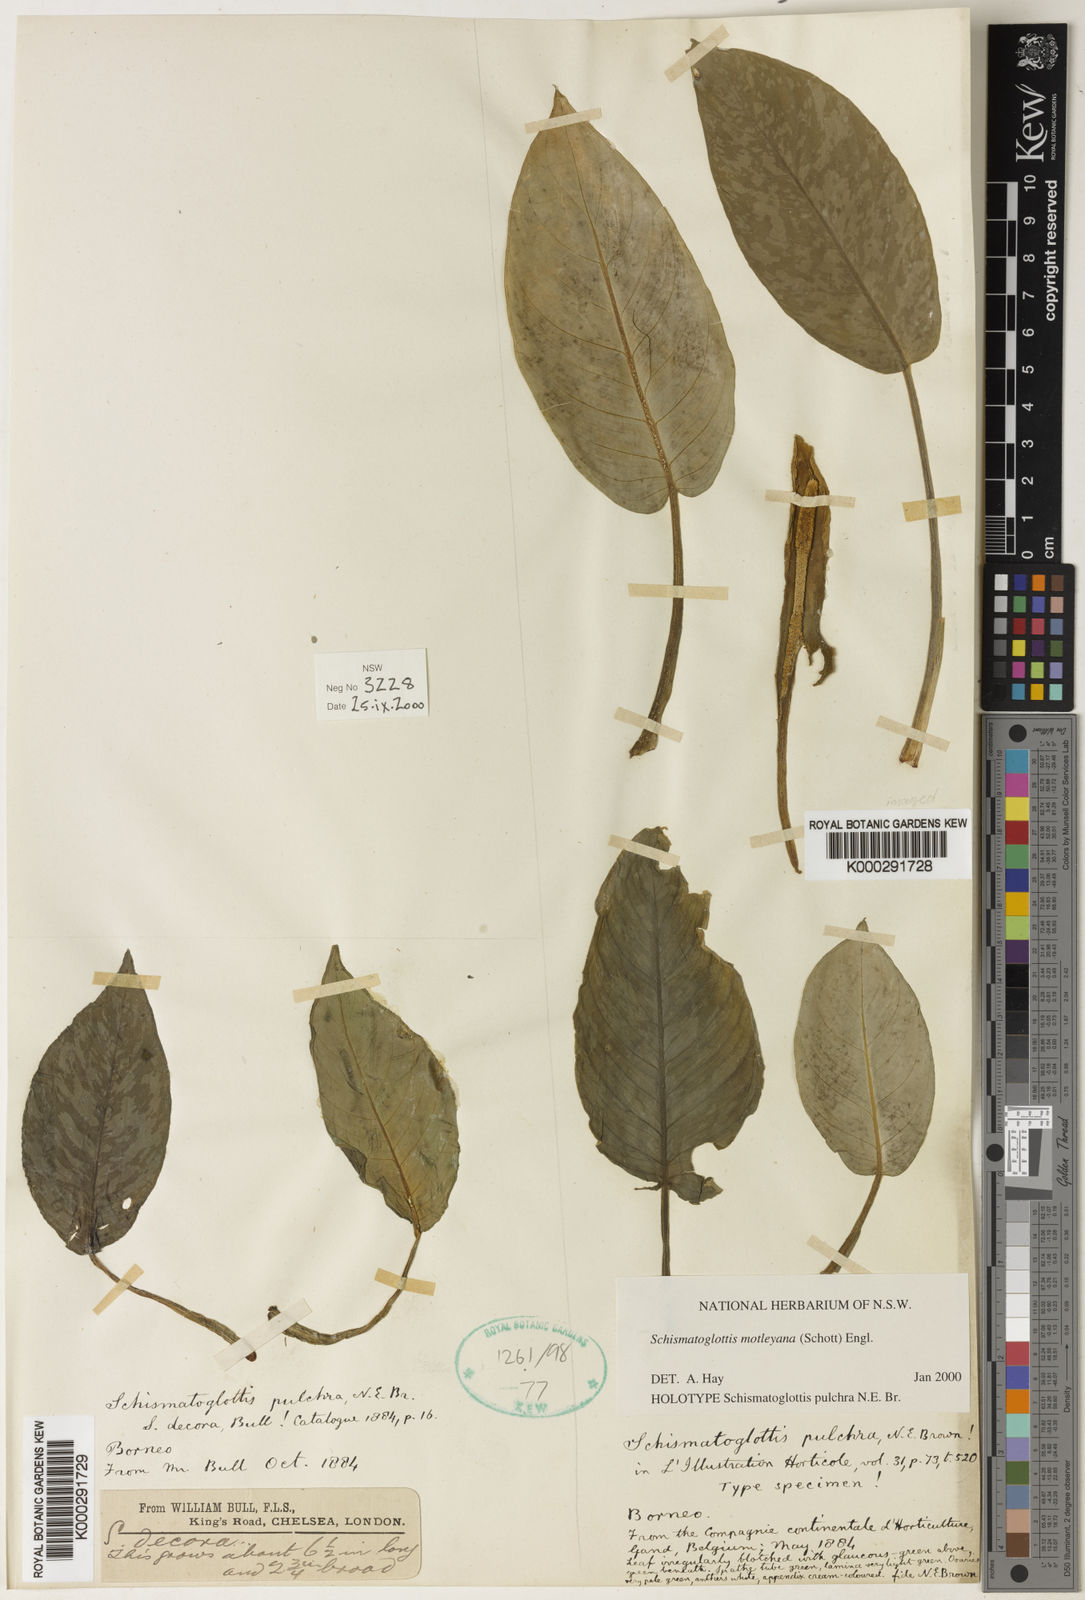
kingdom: Plantae
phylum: Tracheophyta
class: Liliopsida
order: Alismatales
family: Araceae
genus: Schismatoglottis
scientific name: Schismatoglottis motleyana
